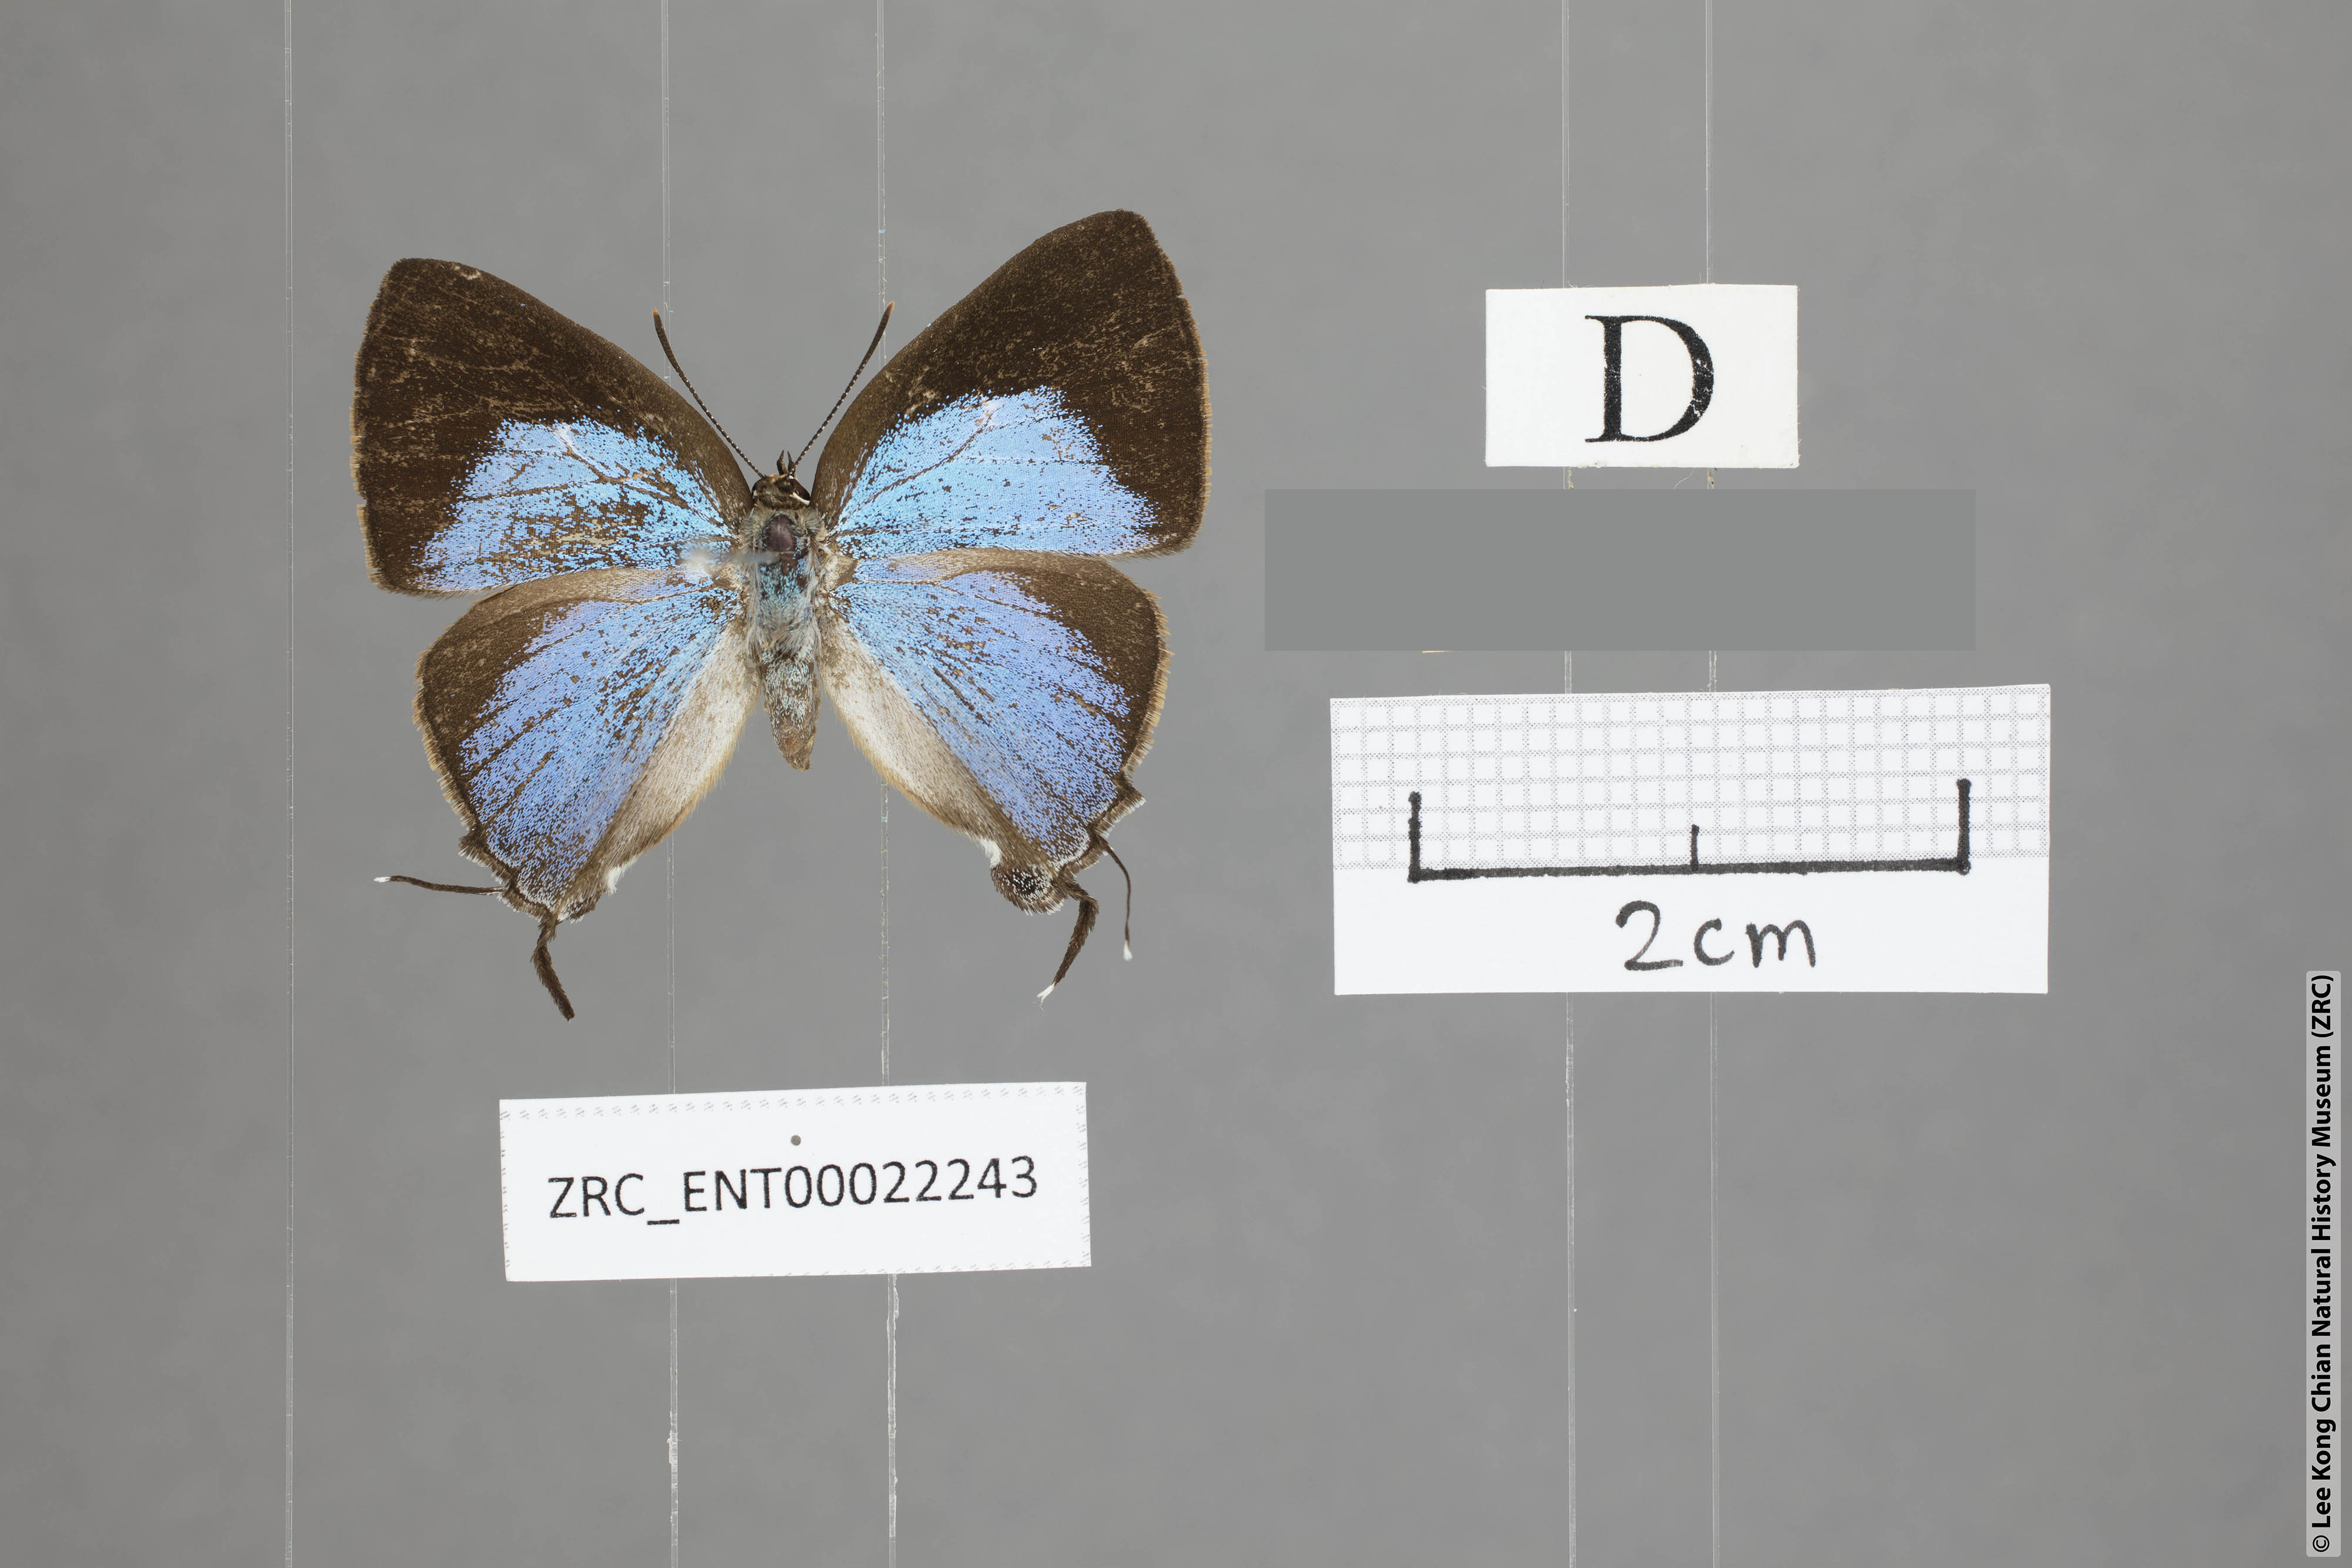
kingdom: Animalia
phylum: Arthropoda
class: Insecta
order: Lepidoptera
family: Lycaenidae
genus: Tajuria
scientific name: Tajuria yajna
